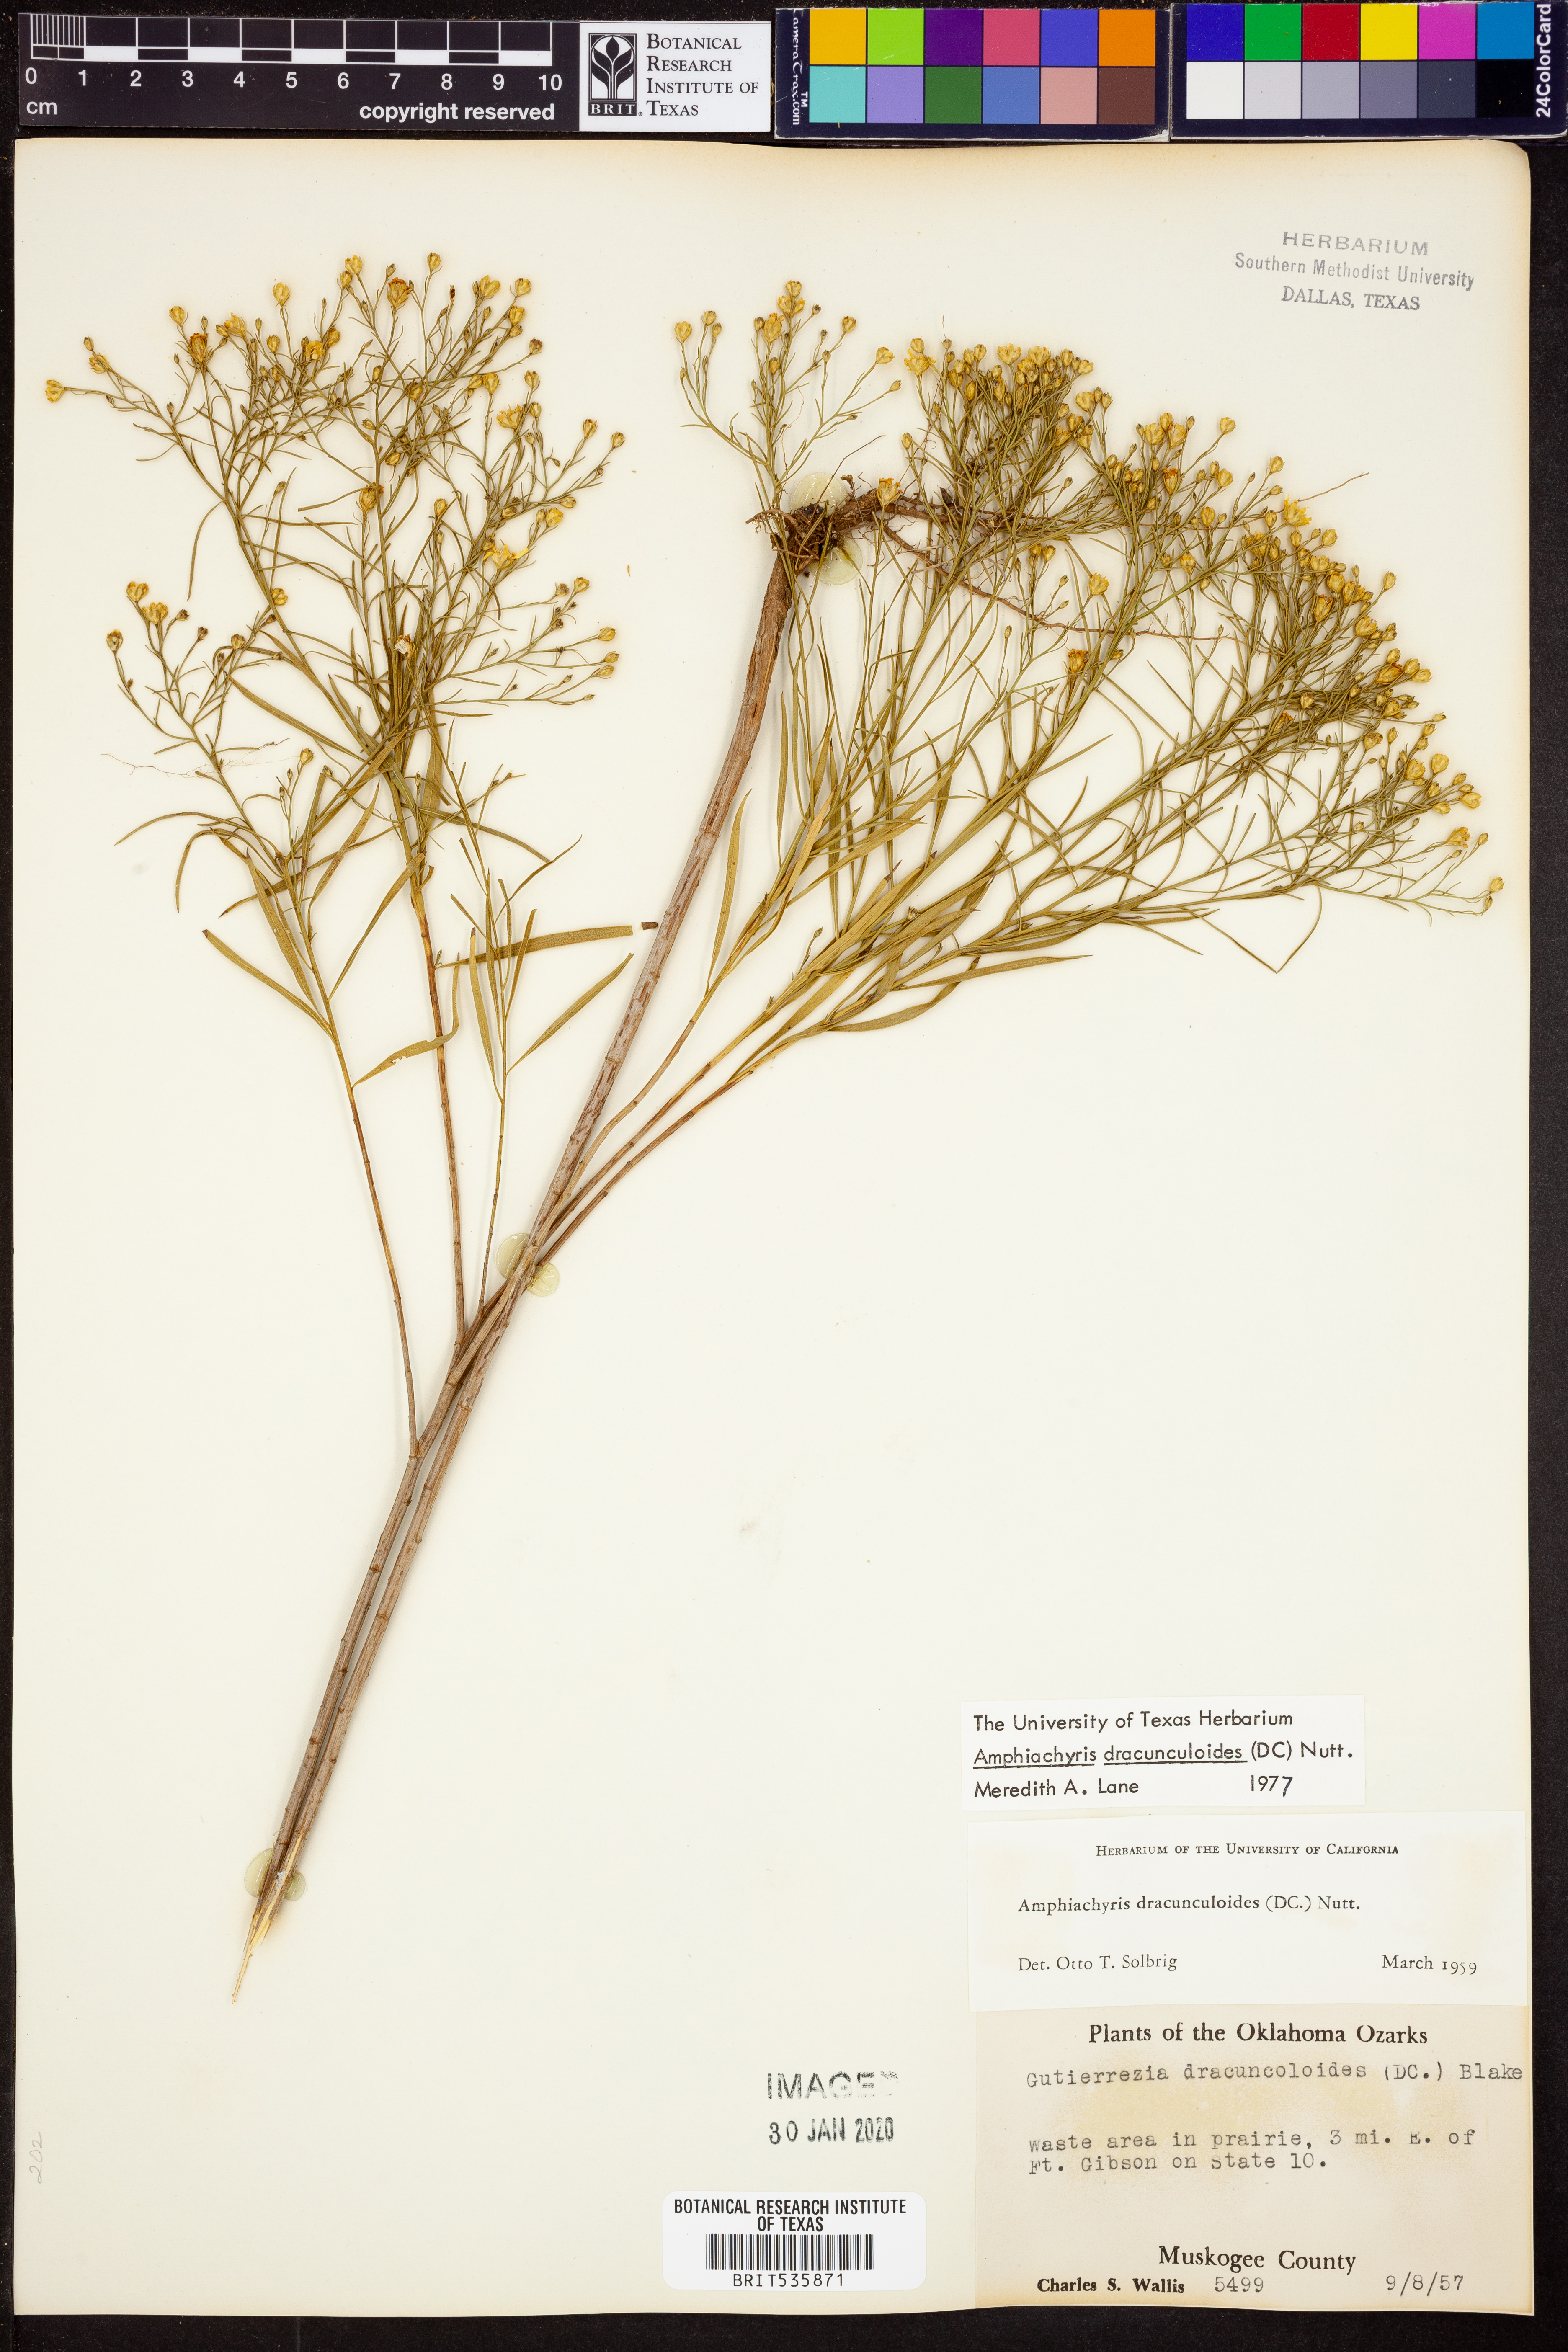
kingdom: Plantae
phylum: Tracheophyta
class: Magnoliopsida
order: Asterales
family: Asteraceae
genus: Amphiachyris
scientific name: Amphiachyris dracunculoides
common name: Broomweed
